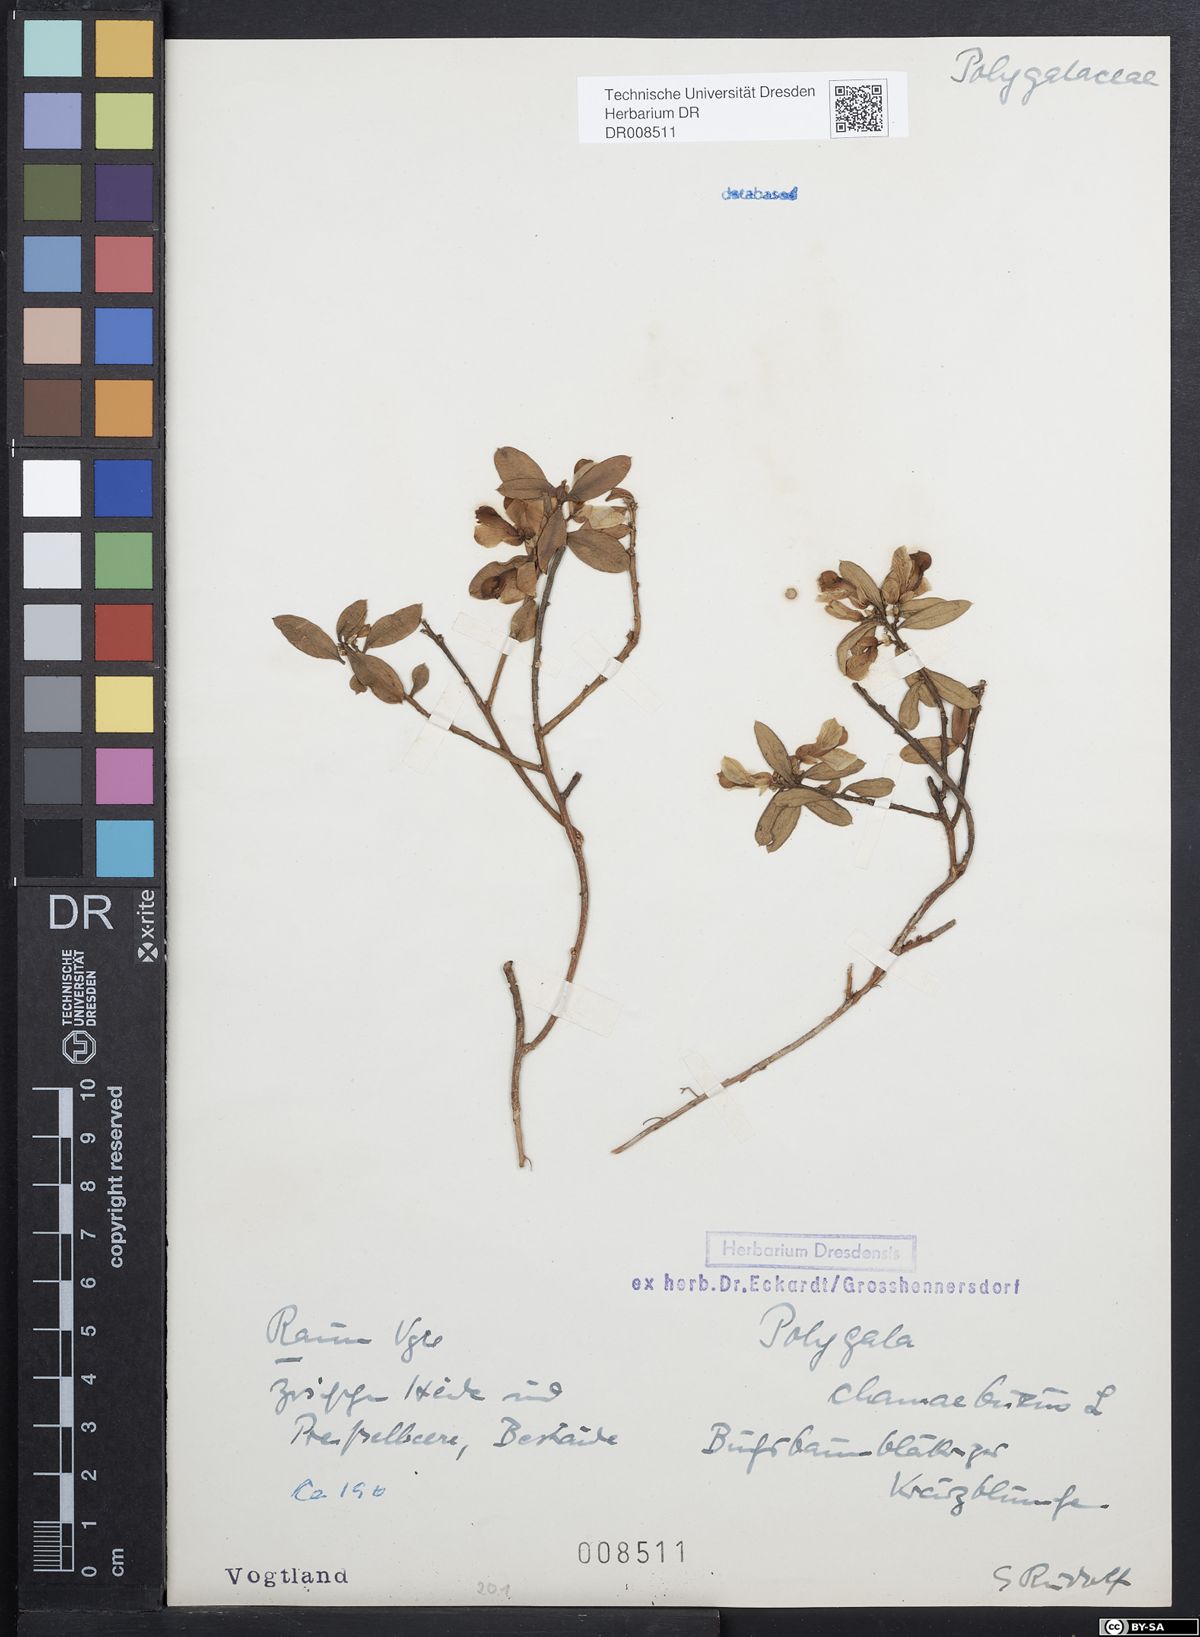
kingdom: Plantae
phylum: Tracheophyta
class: Magnoliopsida
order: Fabales
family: Polygalaceae
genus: Polygaloides
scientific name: Polygaloides chamaebuxus
